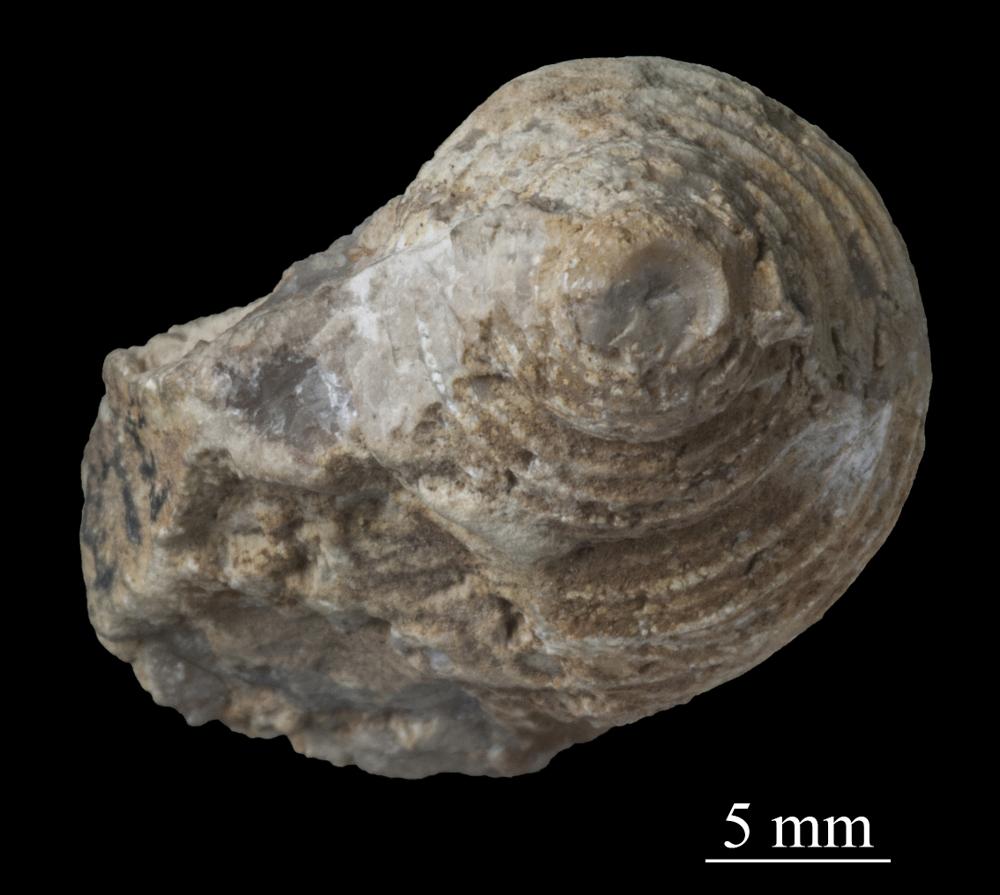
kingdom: Animalia
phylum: Mollusca
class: Gastropoda
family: Platyceratidae
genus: Cyclonema
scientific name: Cyclonema Turbo rupestre
